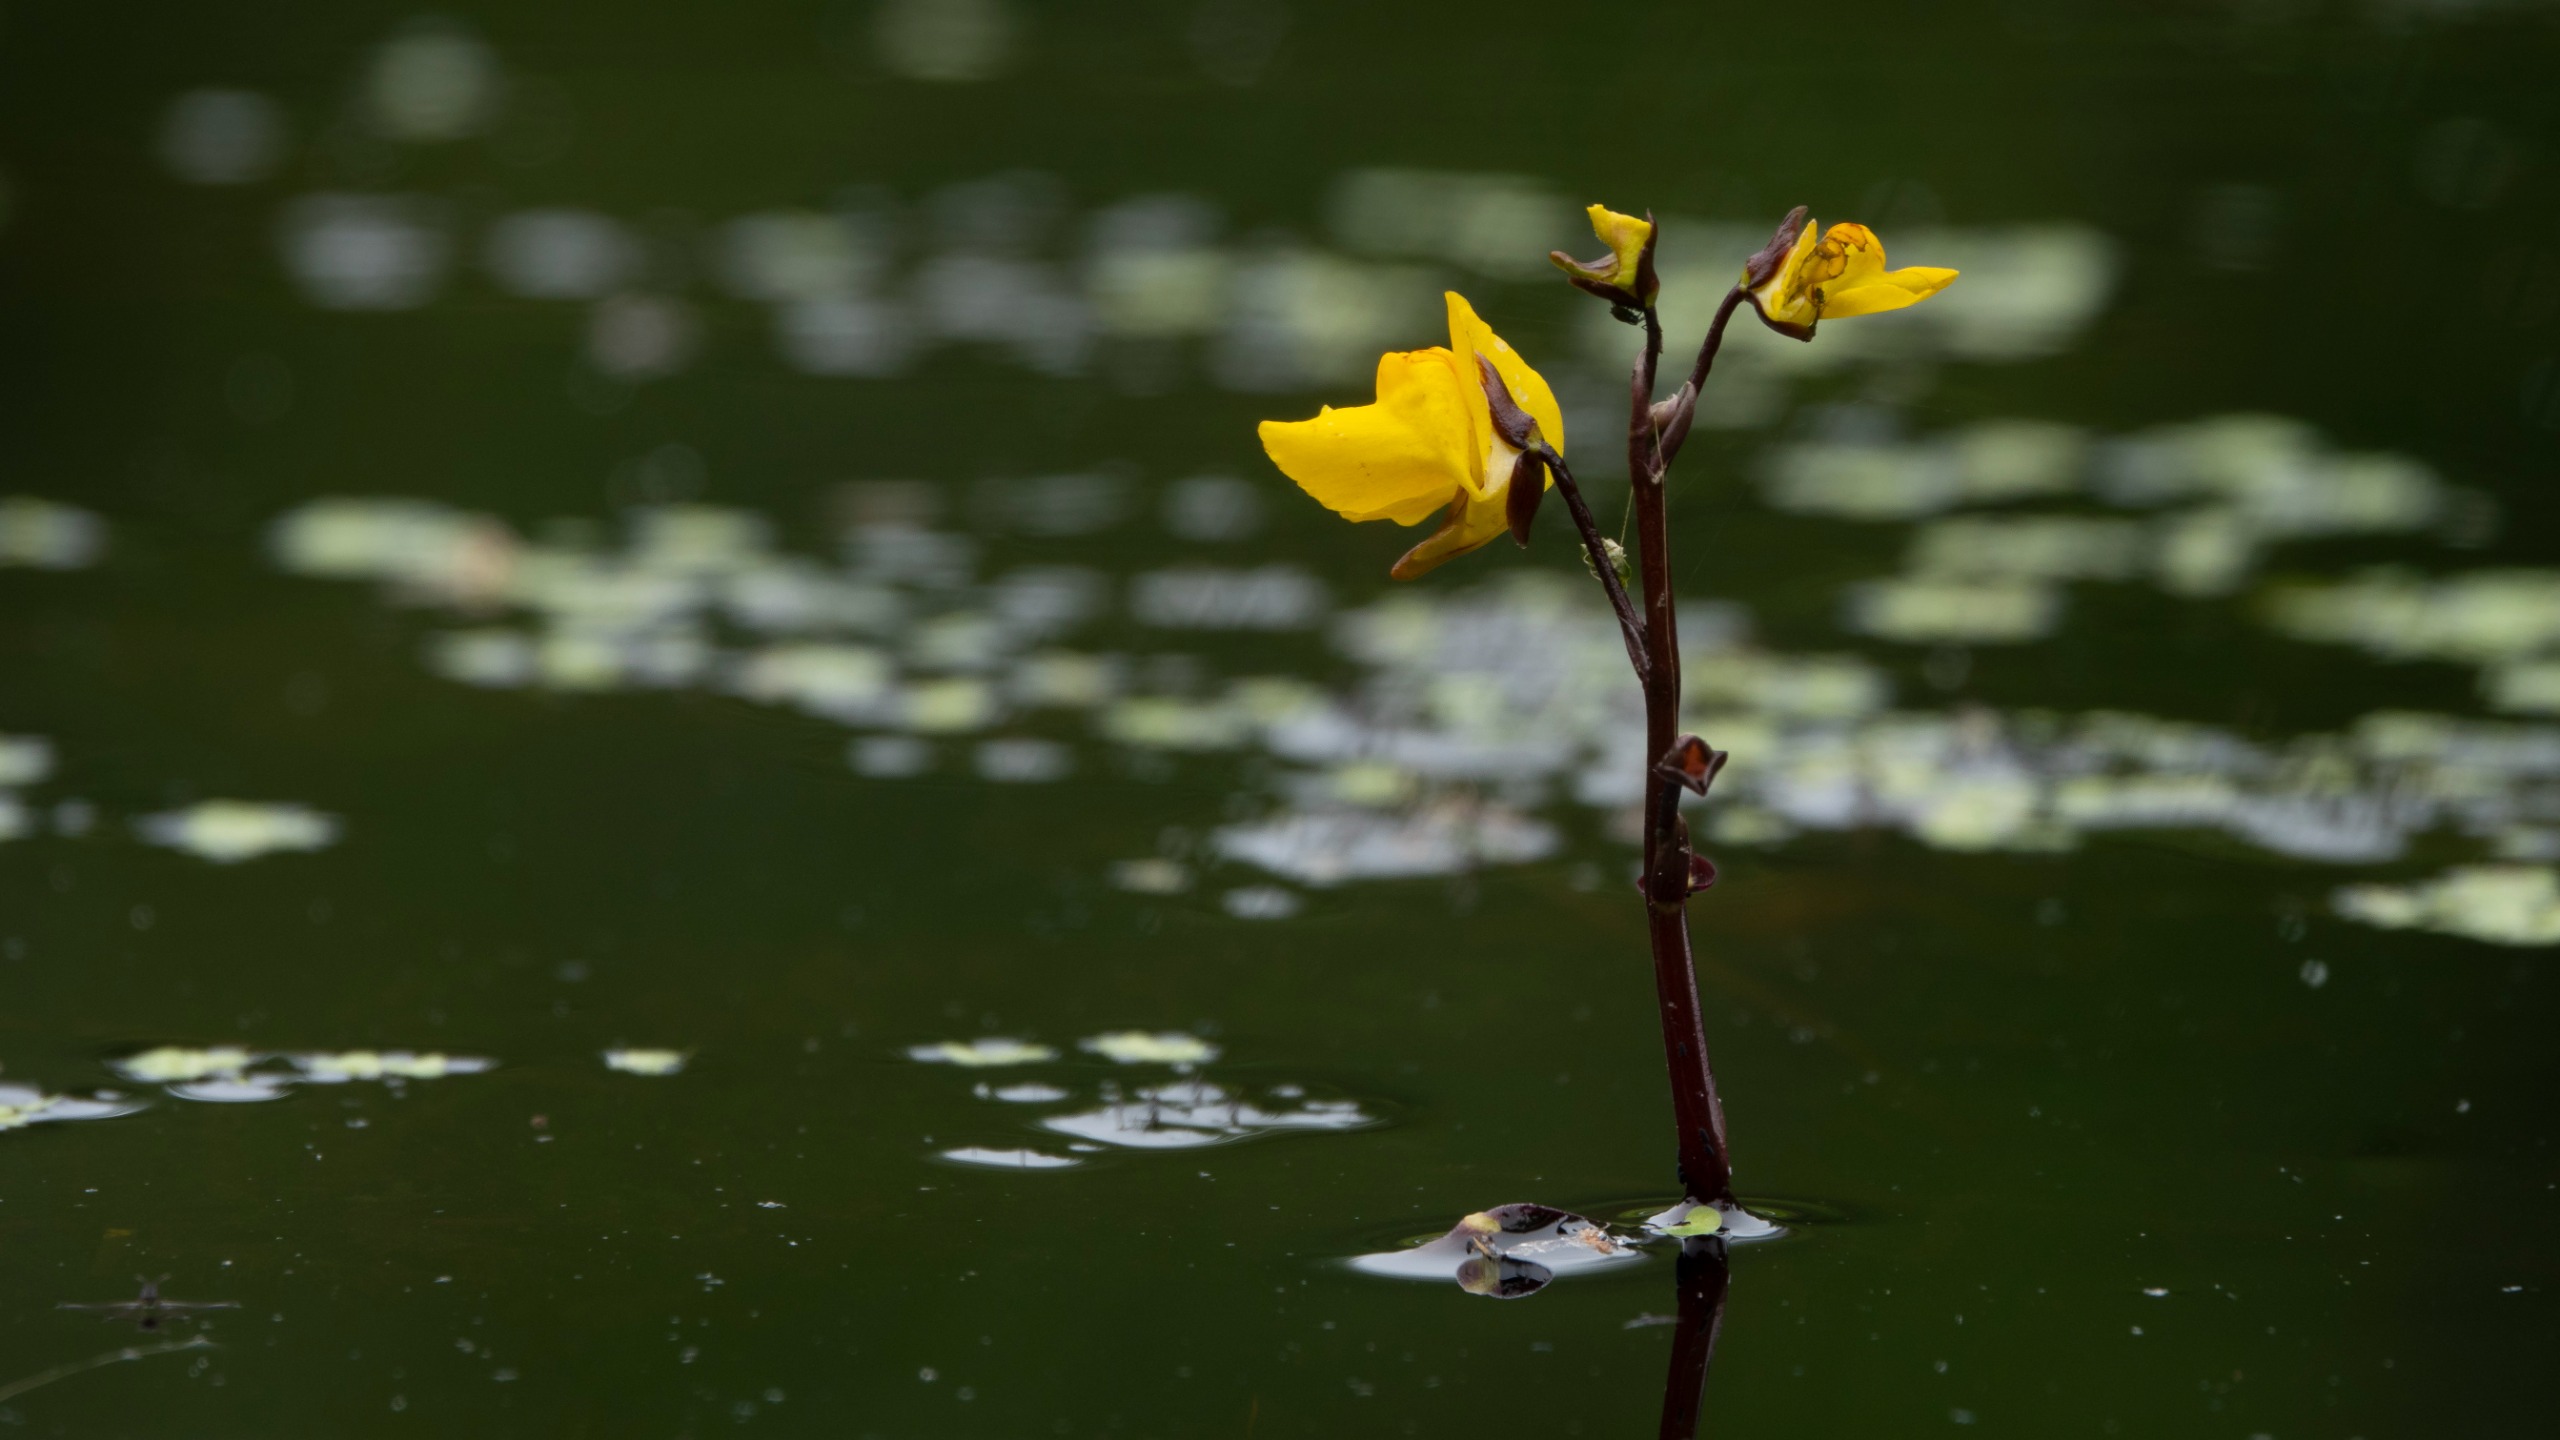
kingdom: Plantae
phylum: Tracheophyta
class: Magnoliopsida
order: Lamiales
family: Lentibulariaceae
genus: Utricularia
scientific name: Utricularia vulgaris
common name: Almindelig blærerod
